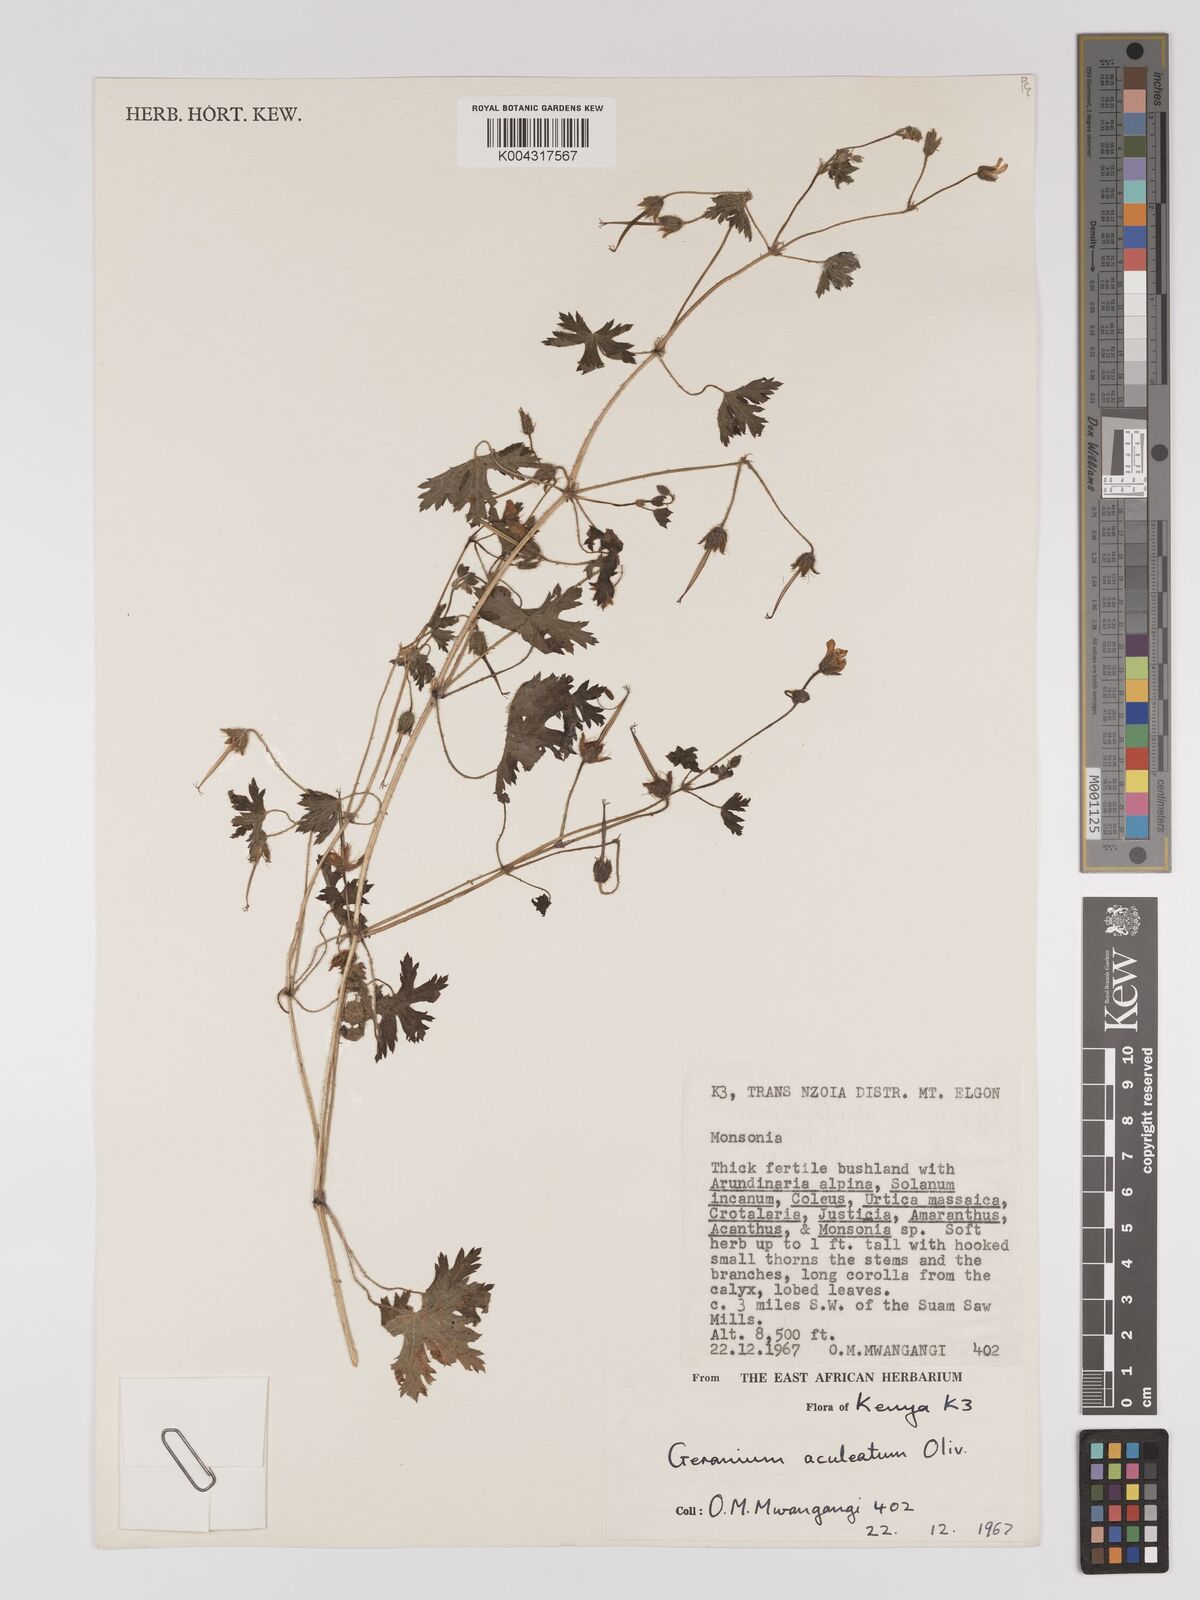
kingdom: Plantae
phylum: Tracheophyta
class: Magnoliopsida
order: Geraniales
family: Geraniaceae
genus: Geranium
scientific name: Geranium aculeolatum
